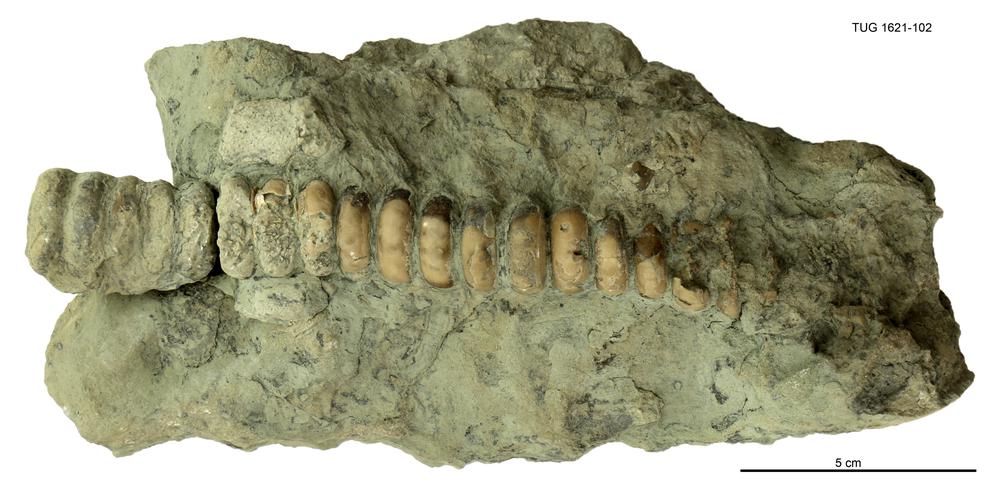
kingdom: Animalia
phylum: Mollusca
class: Cephalopoda
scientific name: Cephalopoda
